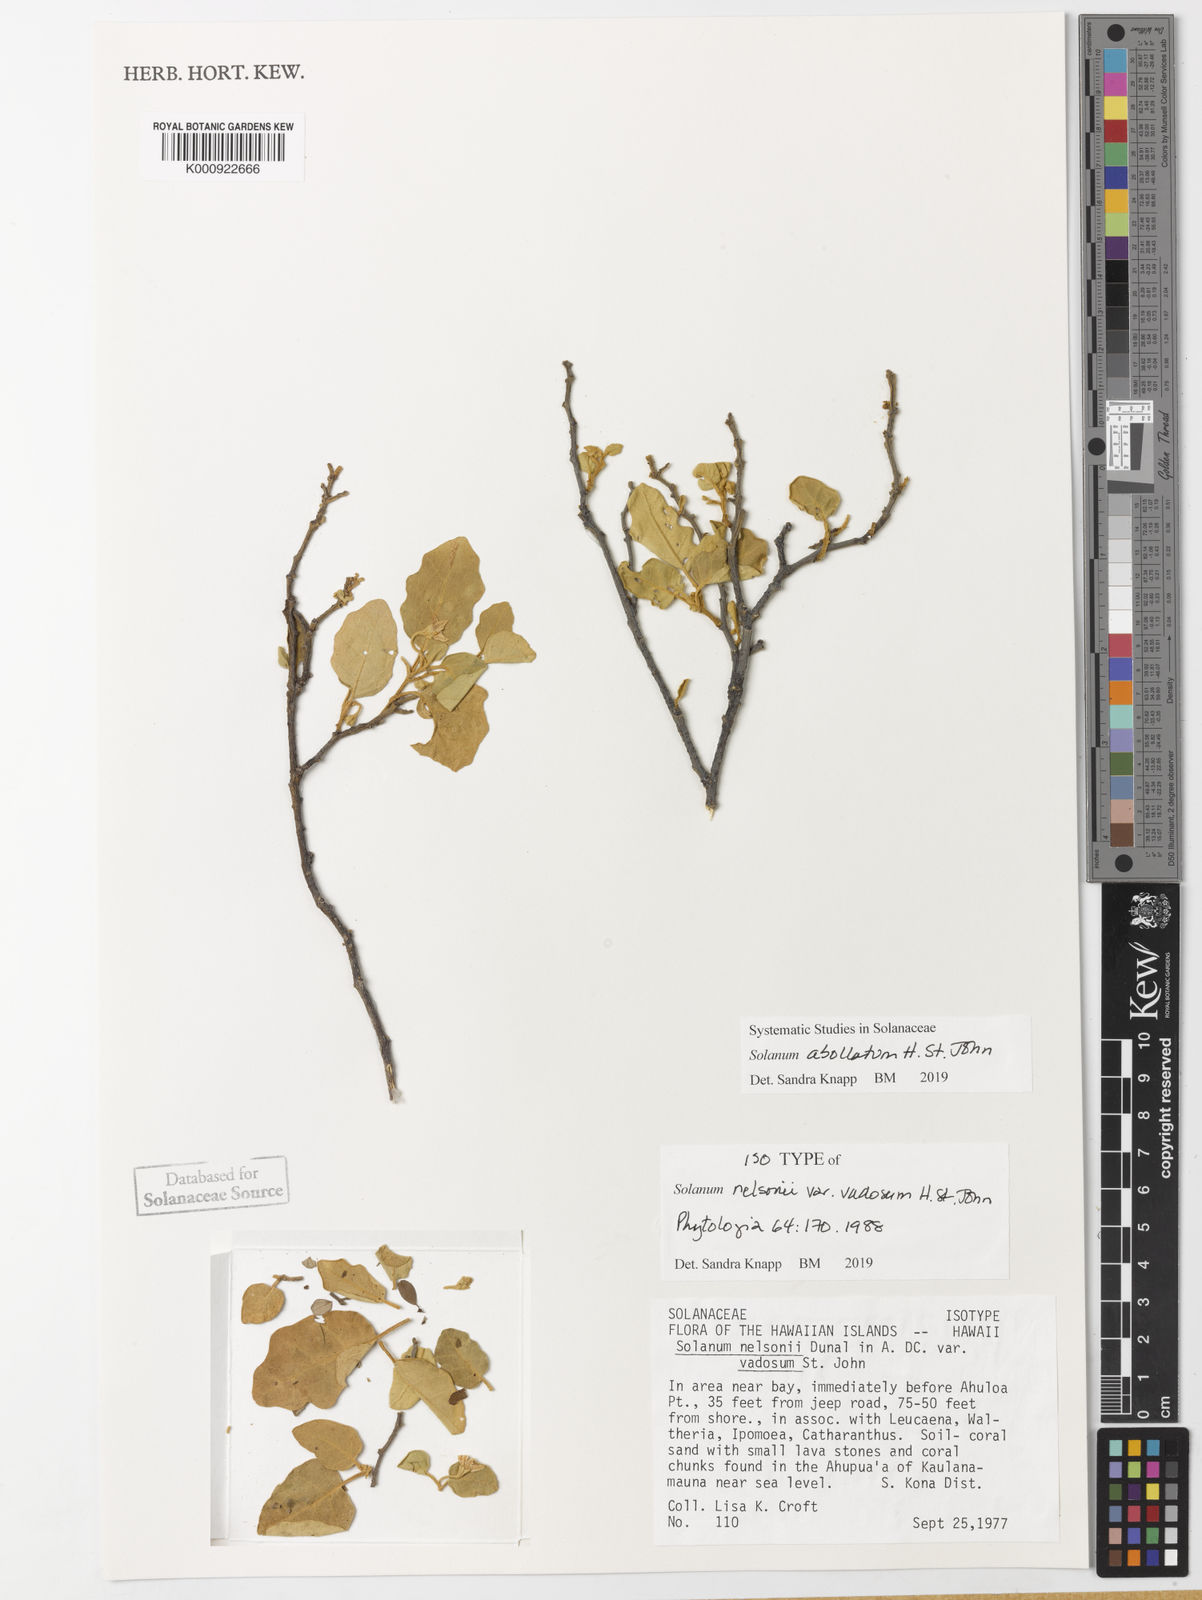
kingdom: Plantae
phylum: Tracheophyta
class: Magnoliopsida
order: Solanales
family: Solanaceae
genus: Solanum
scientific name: Solanum nelsonii
